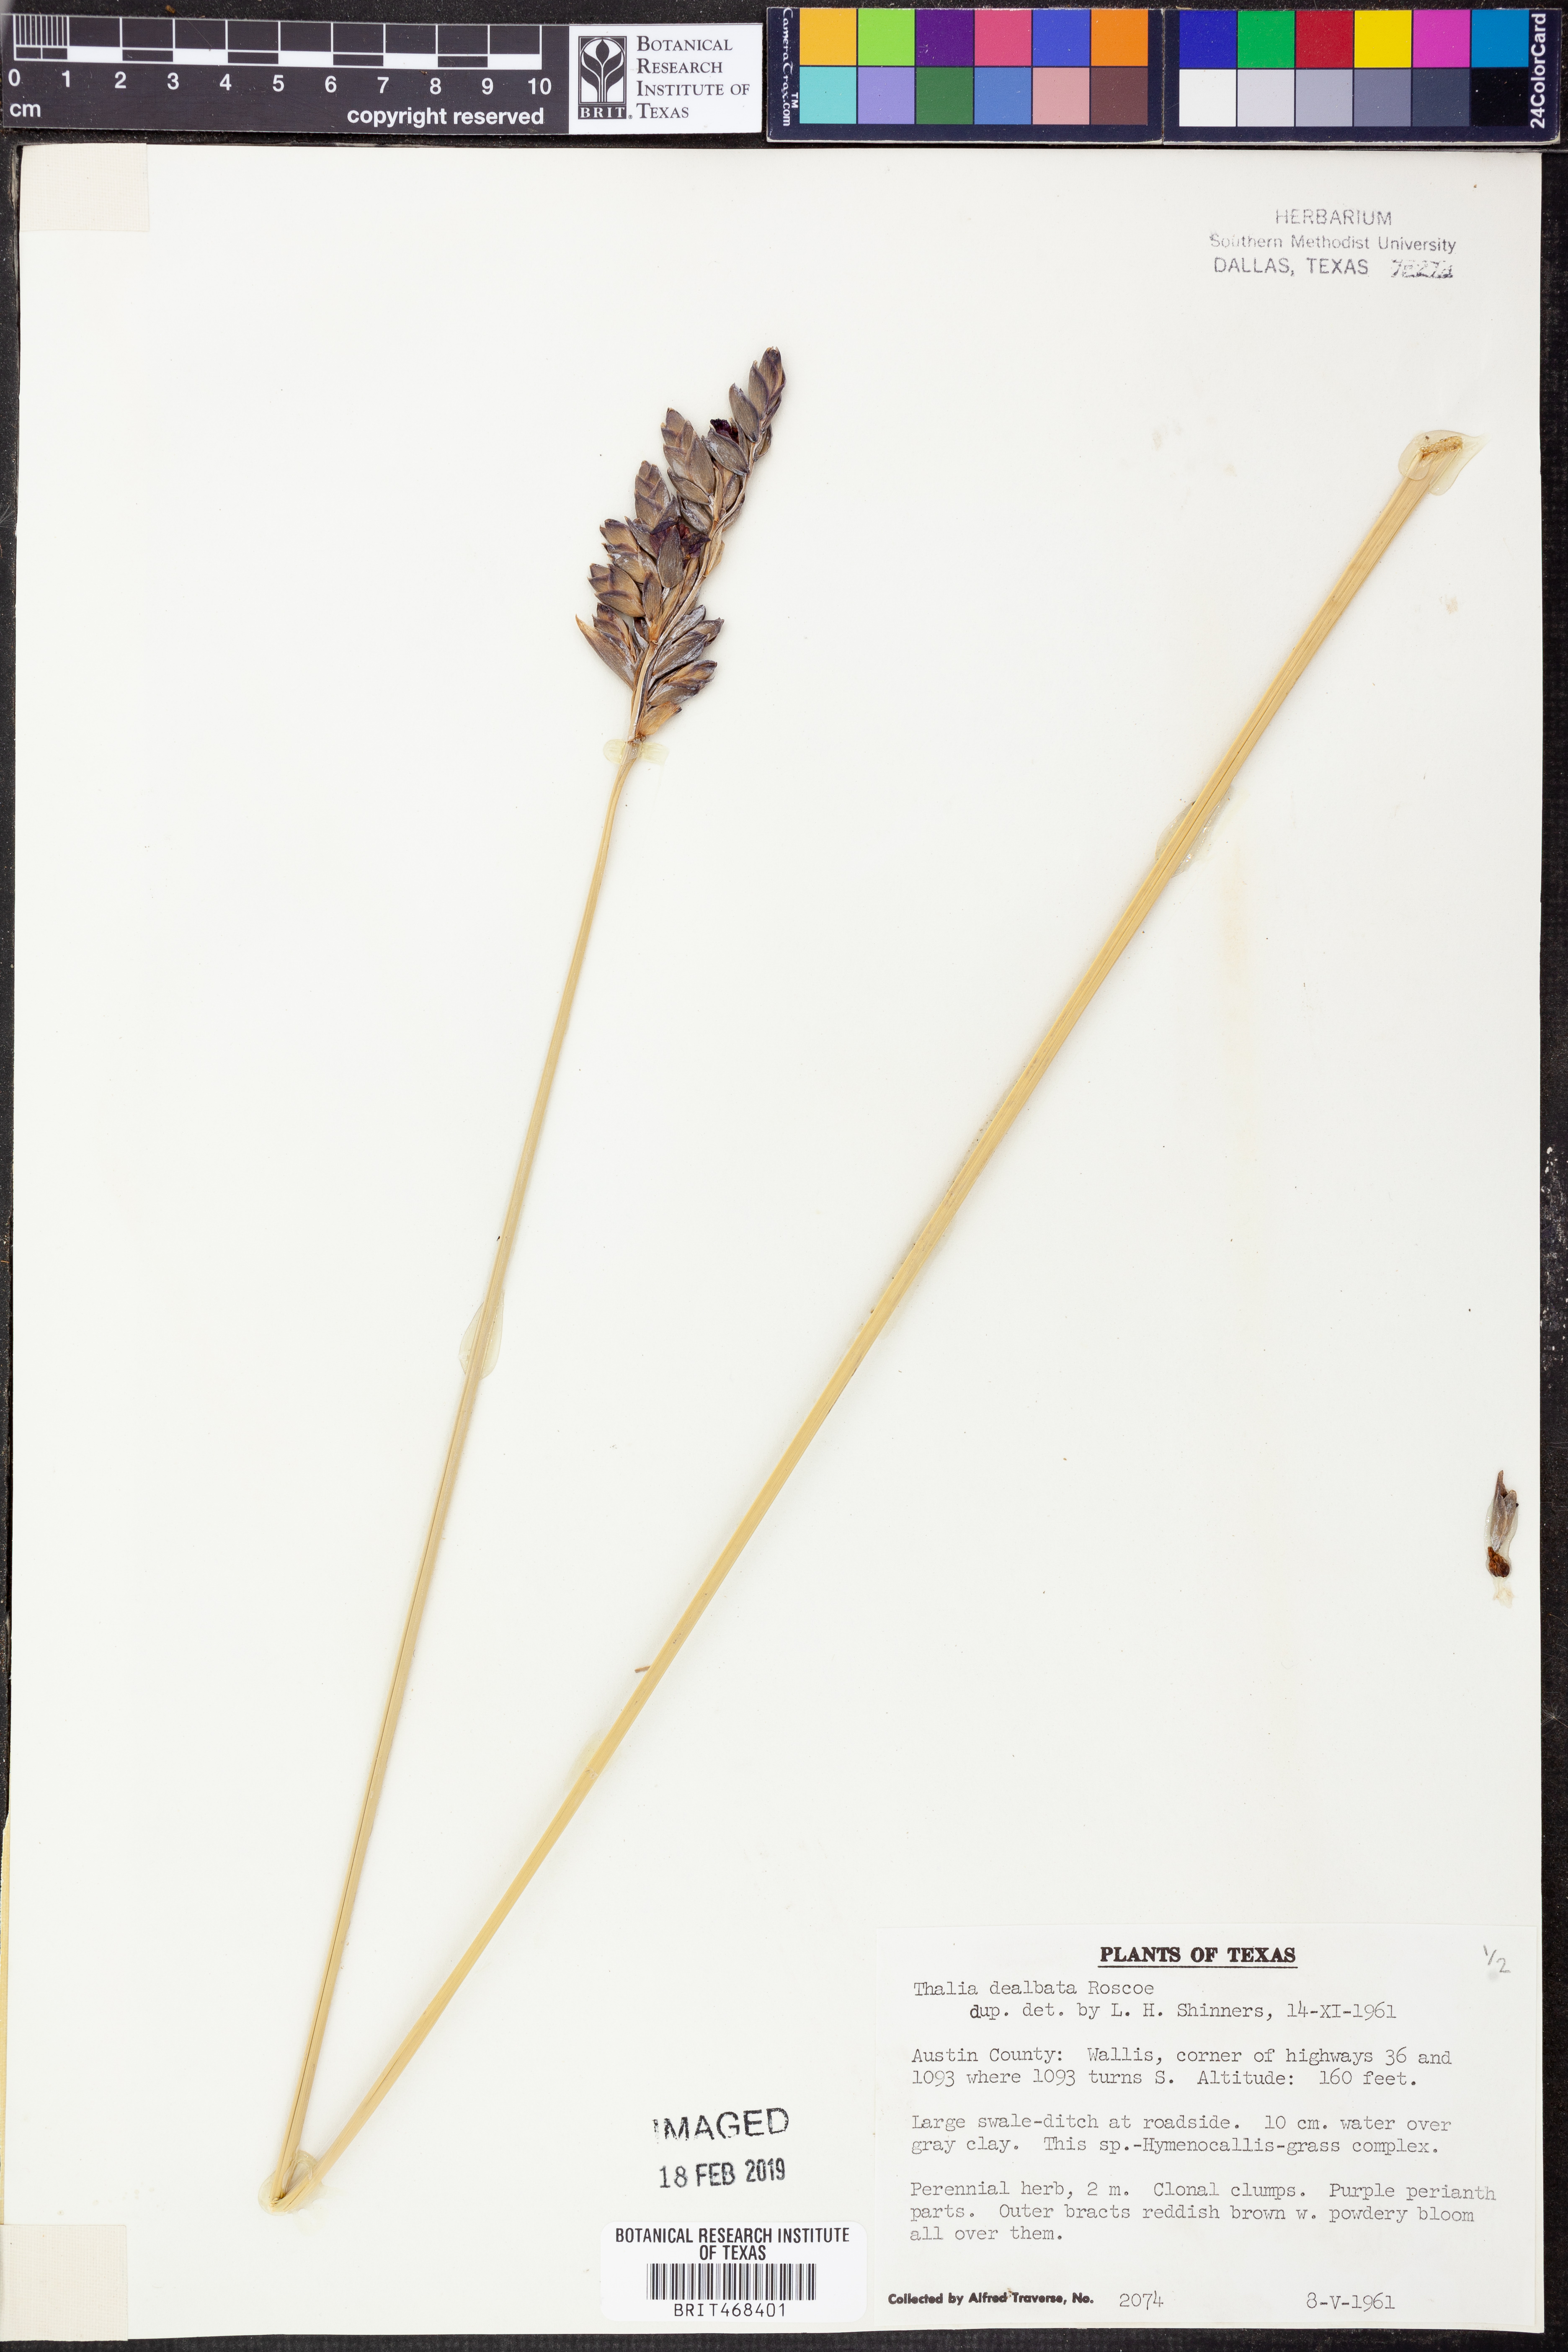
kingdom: Plantae
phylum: Tracheophyta
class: Liliopsida
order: Zingiberales
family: Marantaceae
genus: Thalia
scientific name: Thalia dealbata
